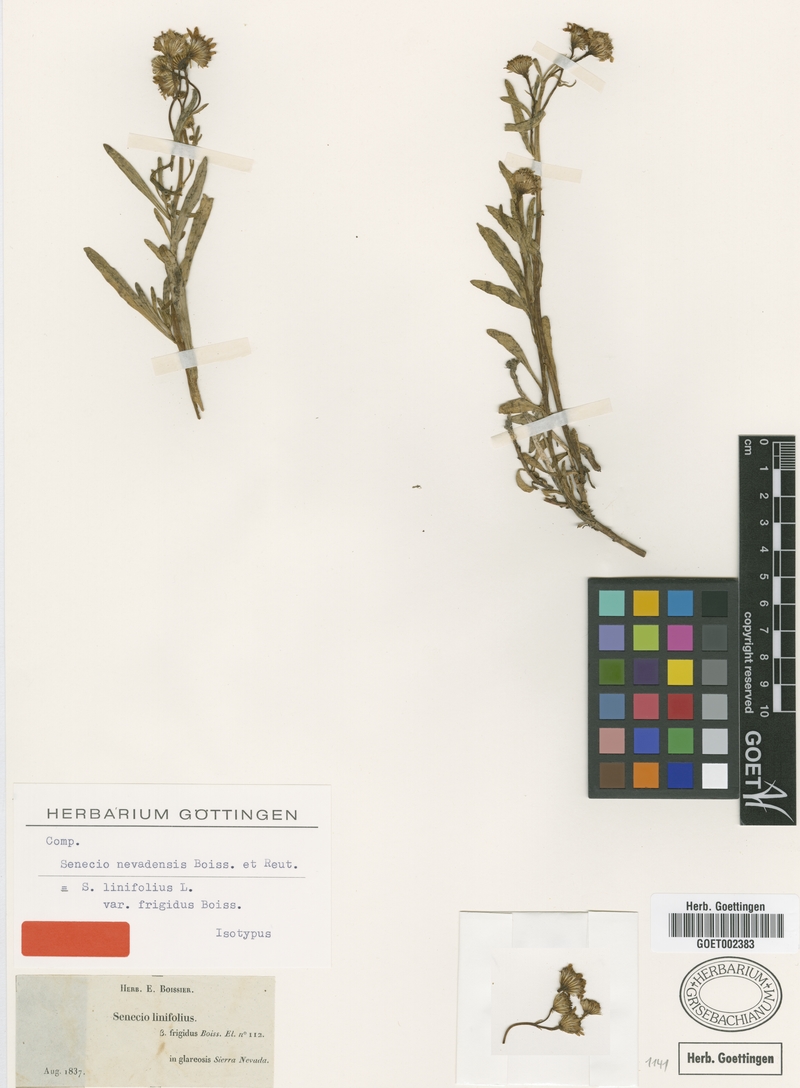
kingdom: Plantae
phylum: Tracheophyta
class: Magnoliopsida
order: Asterales
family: Asteraceae
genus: Senecio
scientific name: Senecio nevadensis
